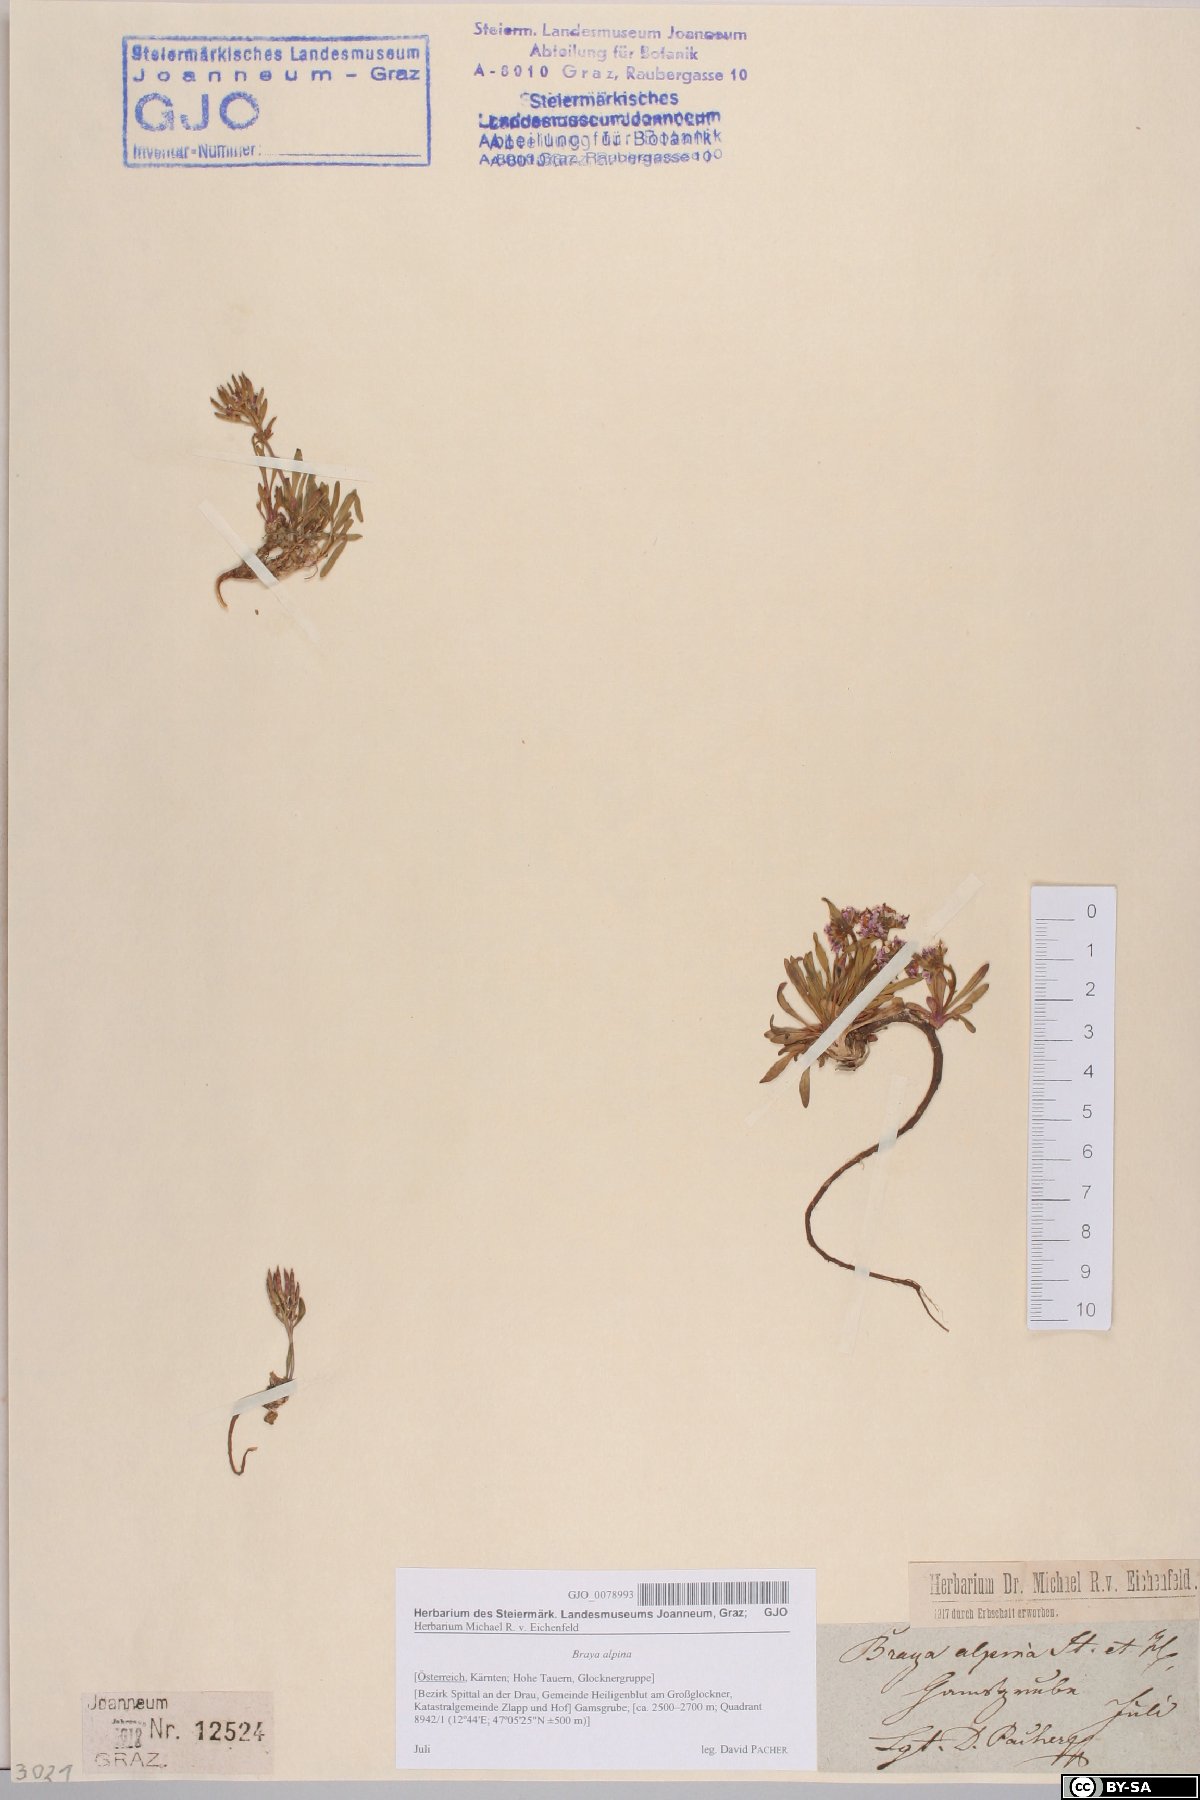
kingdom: Plantae
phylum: Tracheophyta
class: Magnoliopsida
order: Brassicales
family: Brassicaceae
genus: Braya
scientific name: Braya alpina
